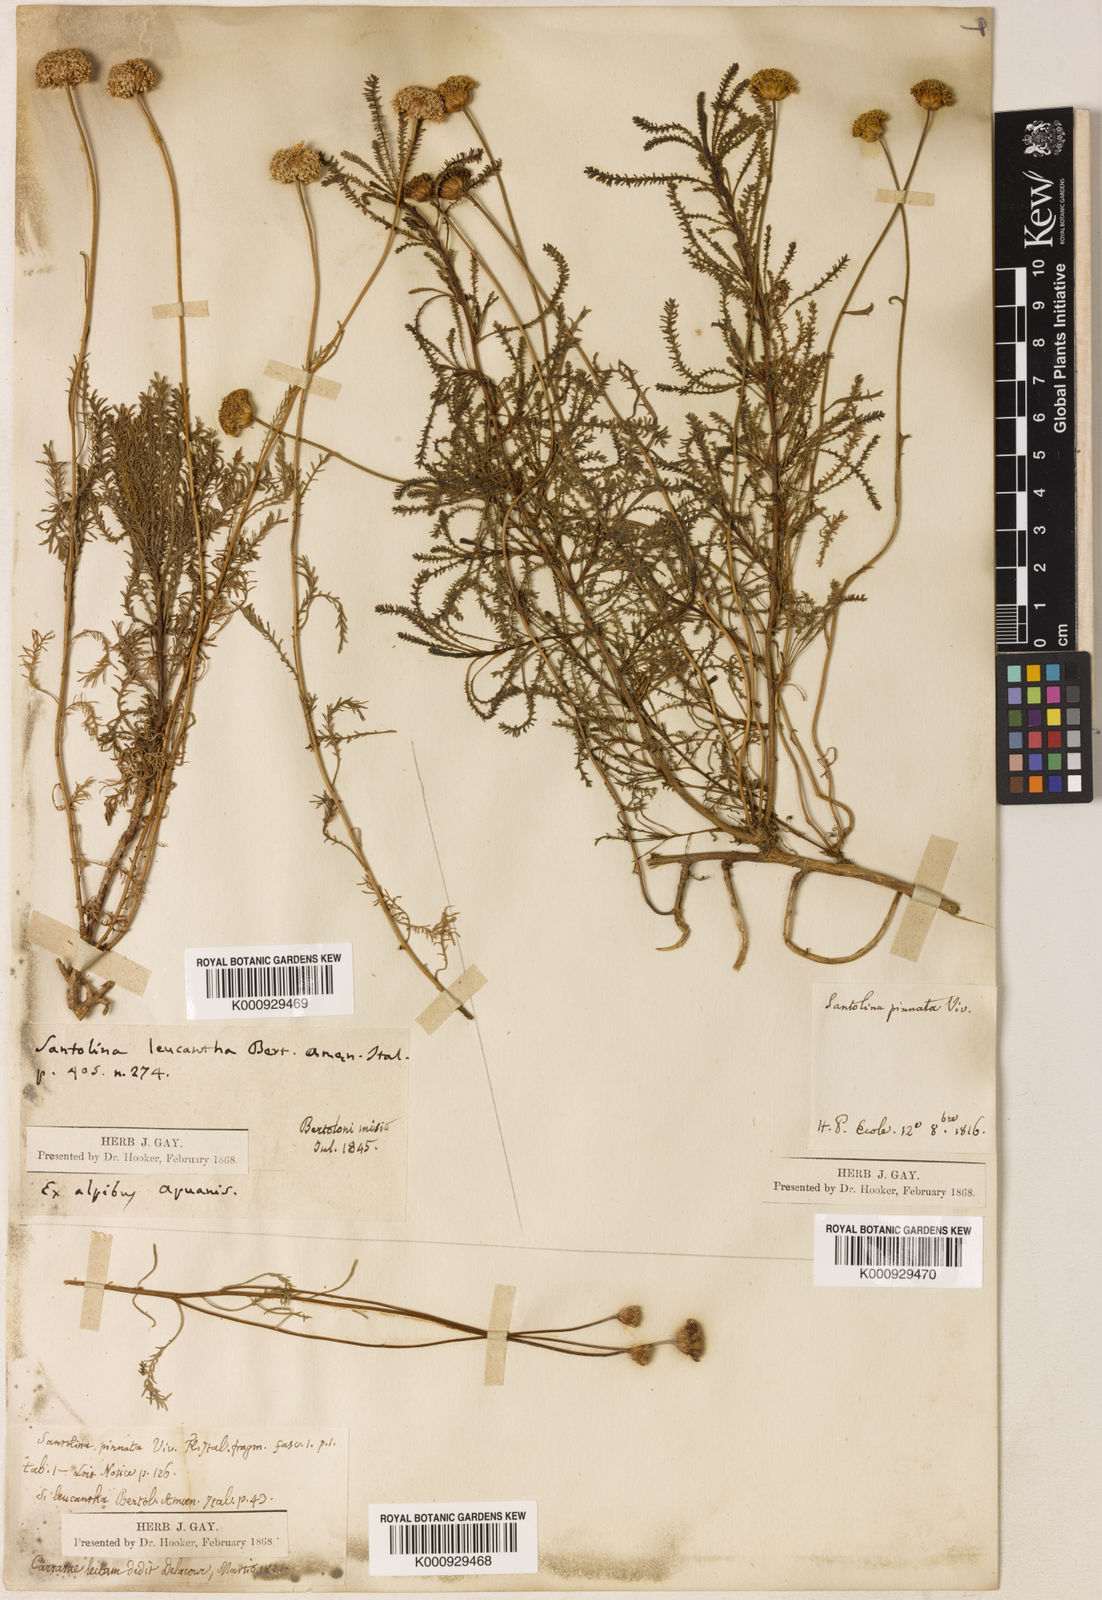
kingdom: Plantae
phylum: Tracheophyta
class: Magnoliopsida
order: Asterales
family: Asteraceae
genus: Santolina
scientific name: Santolina chamaecyparissus
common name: Lavender-cotton
